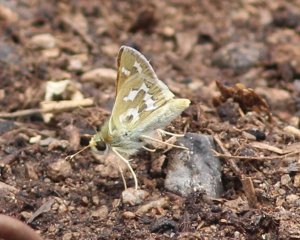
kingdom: Animalia
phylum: Arthropoda
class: Insecta
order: Lepidoptera
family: Hesperiidae
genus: Hesperia
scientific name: Hesperia comma
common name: Western Branded Skipper
